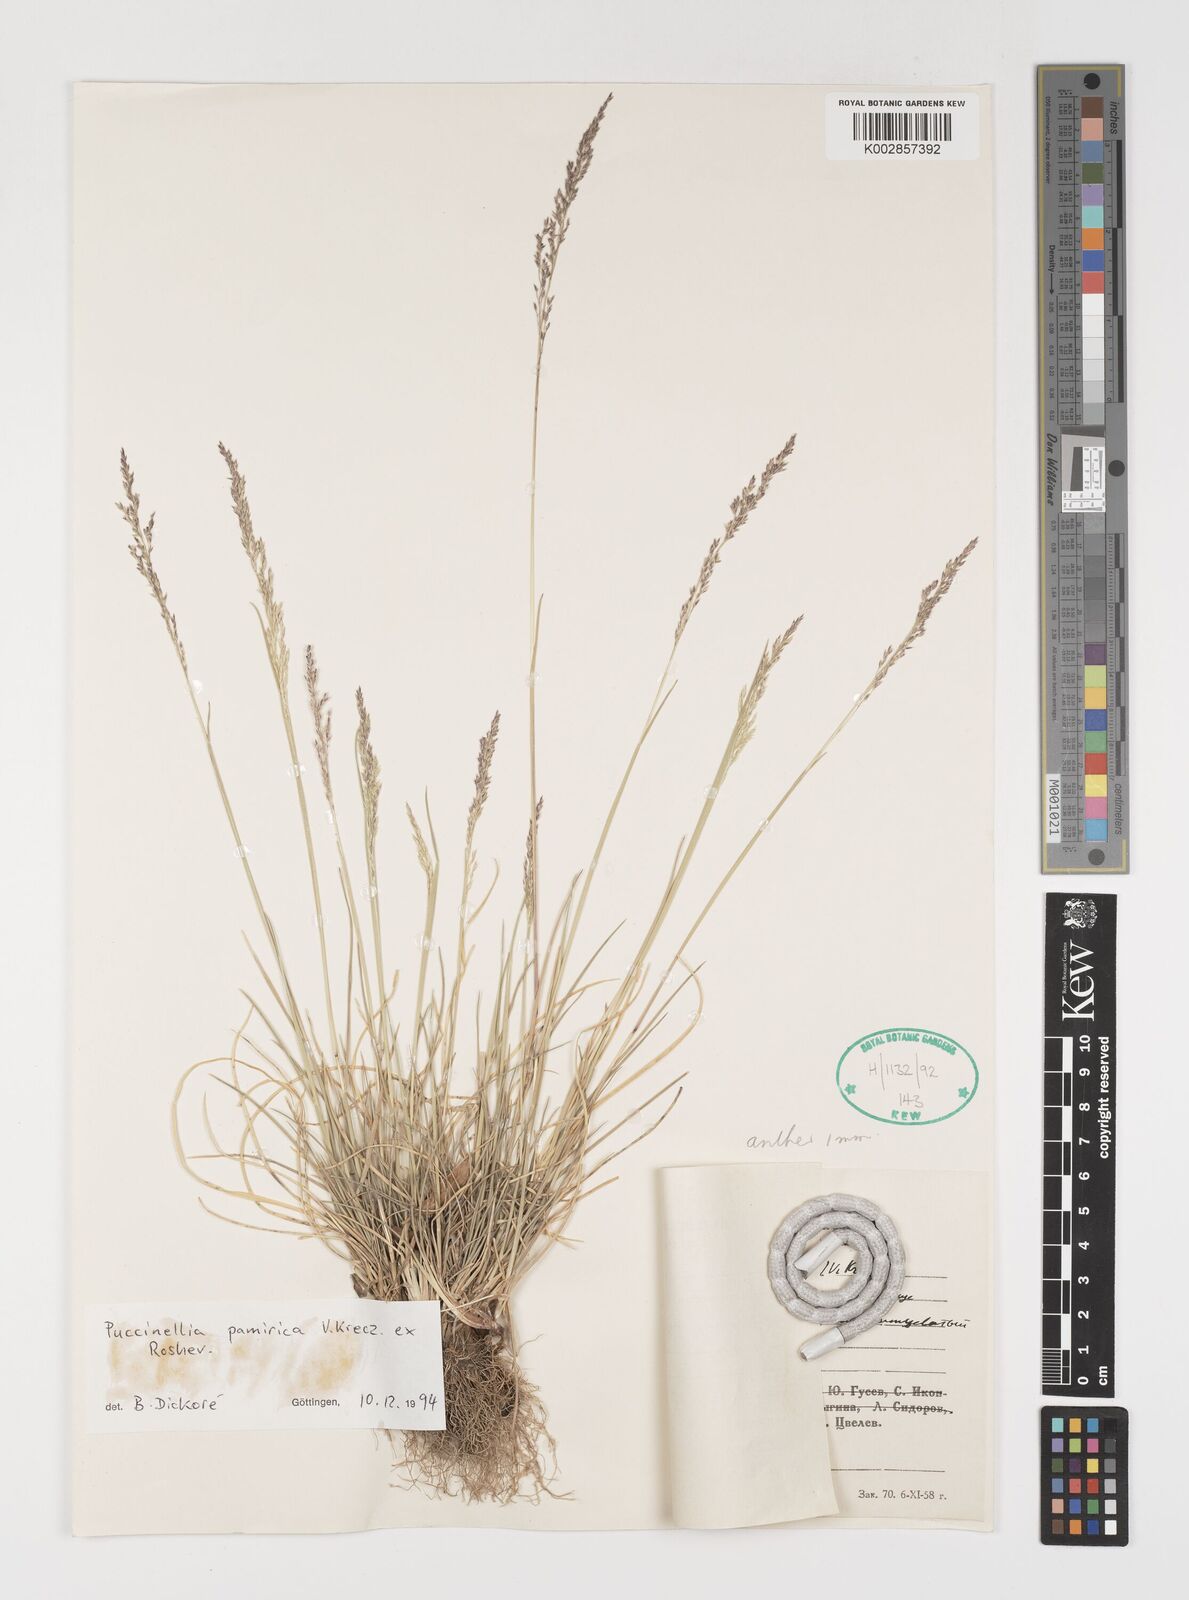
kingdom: Plantae
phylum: Tracheophyta
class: Liliopsida
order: Poales
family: Poaceae
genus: Puccinellia
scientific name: Puccinellia pamirica
